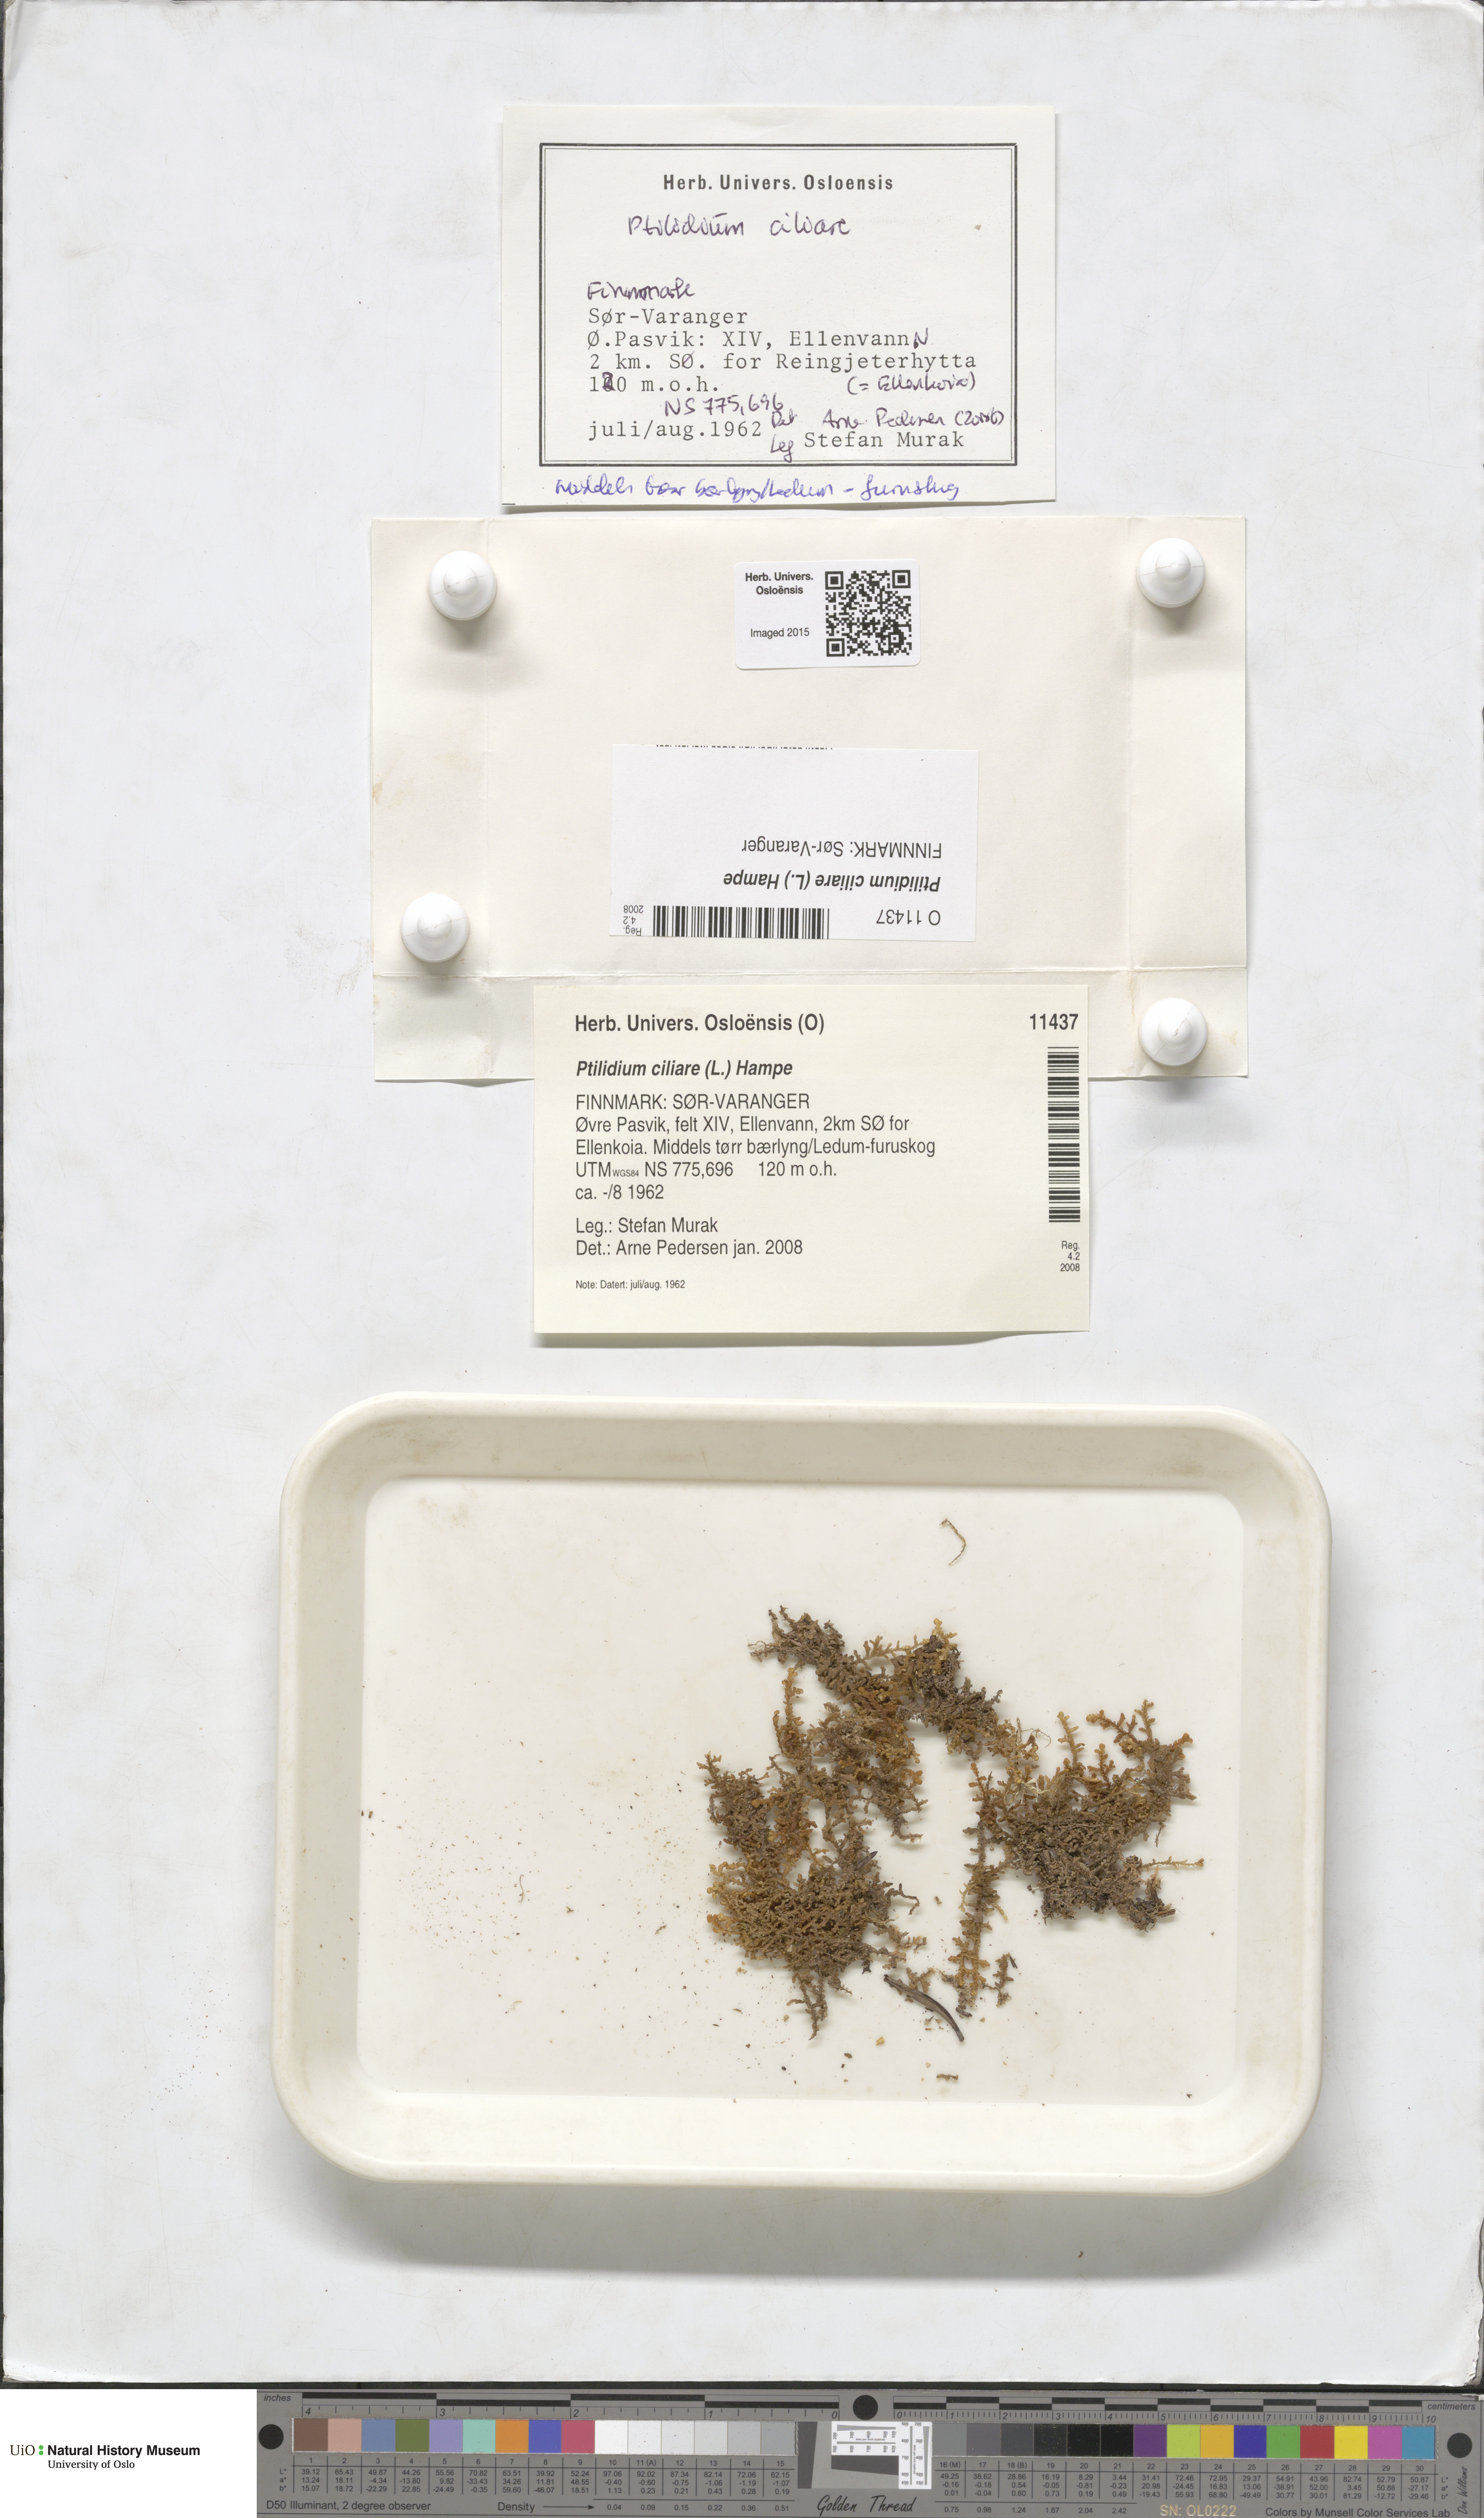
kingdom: Plantae
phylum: Marchantiophyta
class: Jungermanniopsida
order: Ptilidiales
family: Ptilidiaceae
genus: Ptilidium
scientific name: Ptilidium ciliare
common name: Ciliate fringewort
